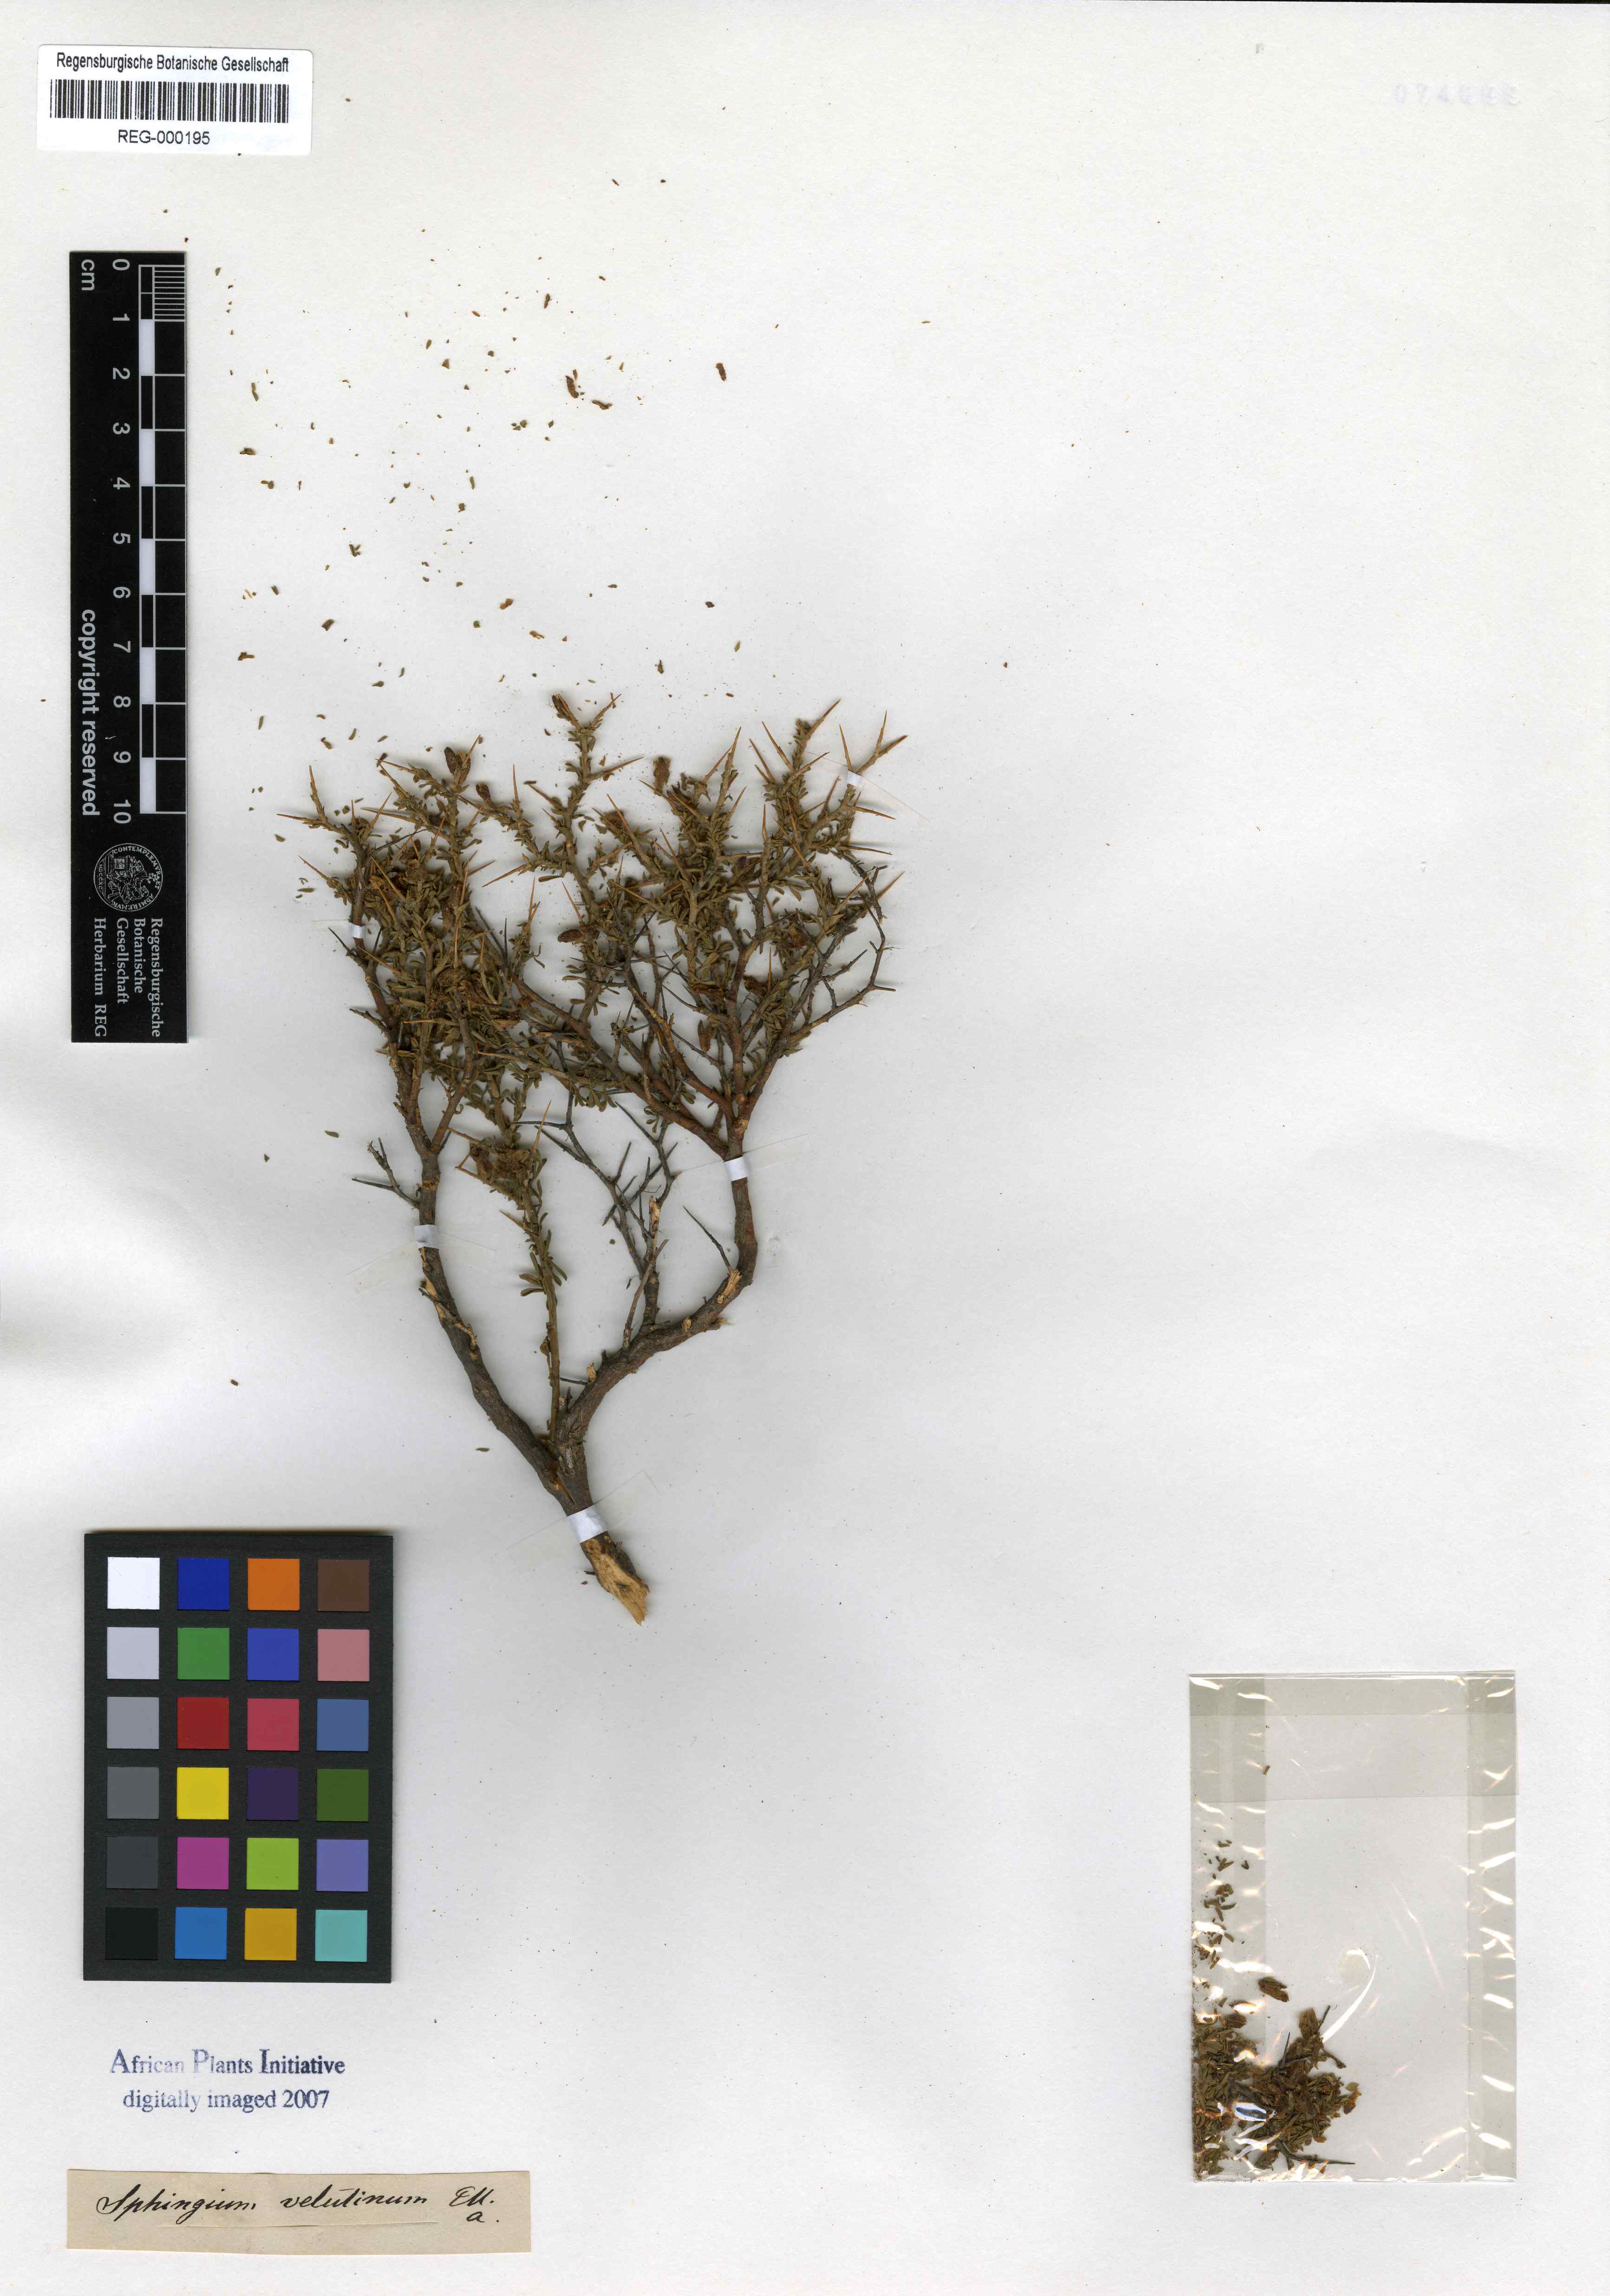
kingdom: Plantae
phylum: Tracheophyta
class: Magnoliopsida
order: Fabales
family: Fabaceae
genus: Melolobium
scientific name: Melolobium candicans
